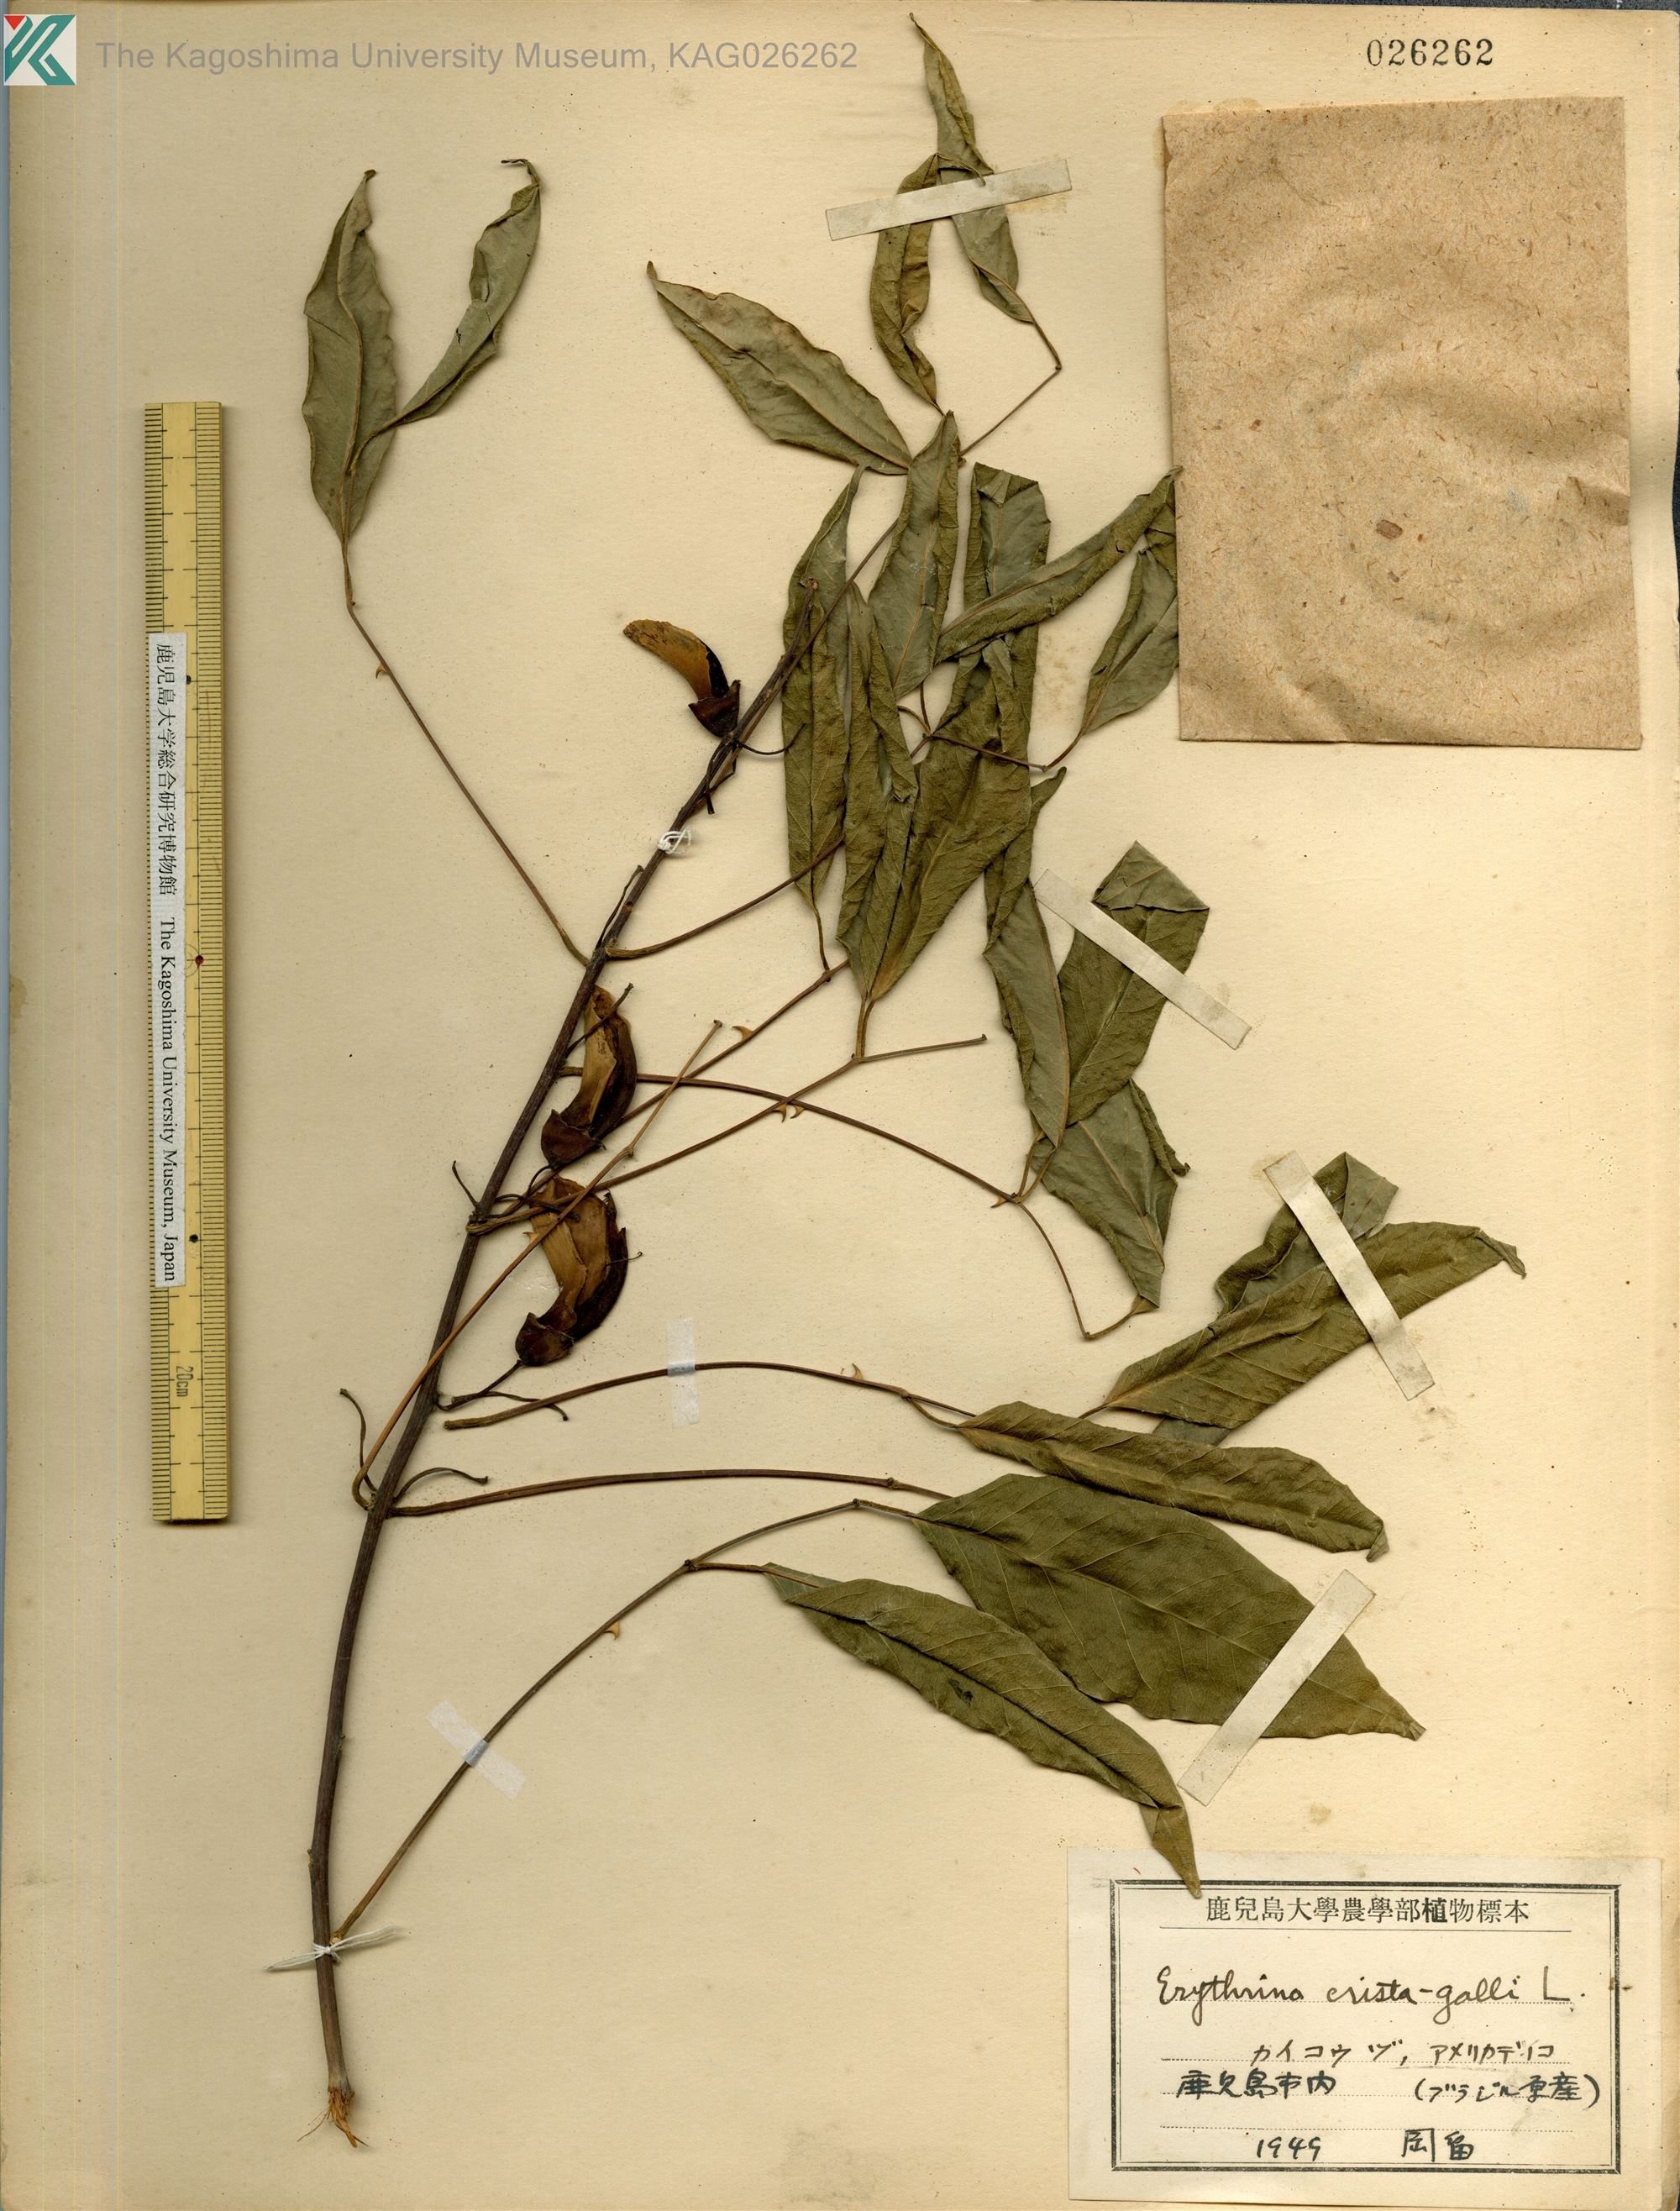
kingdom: Plantae
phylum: Tracheophyta
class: Magnoliopsida
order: Fabales
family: Fabaceae
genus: Erythrina
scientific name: Erythrina crista-galli
